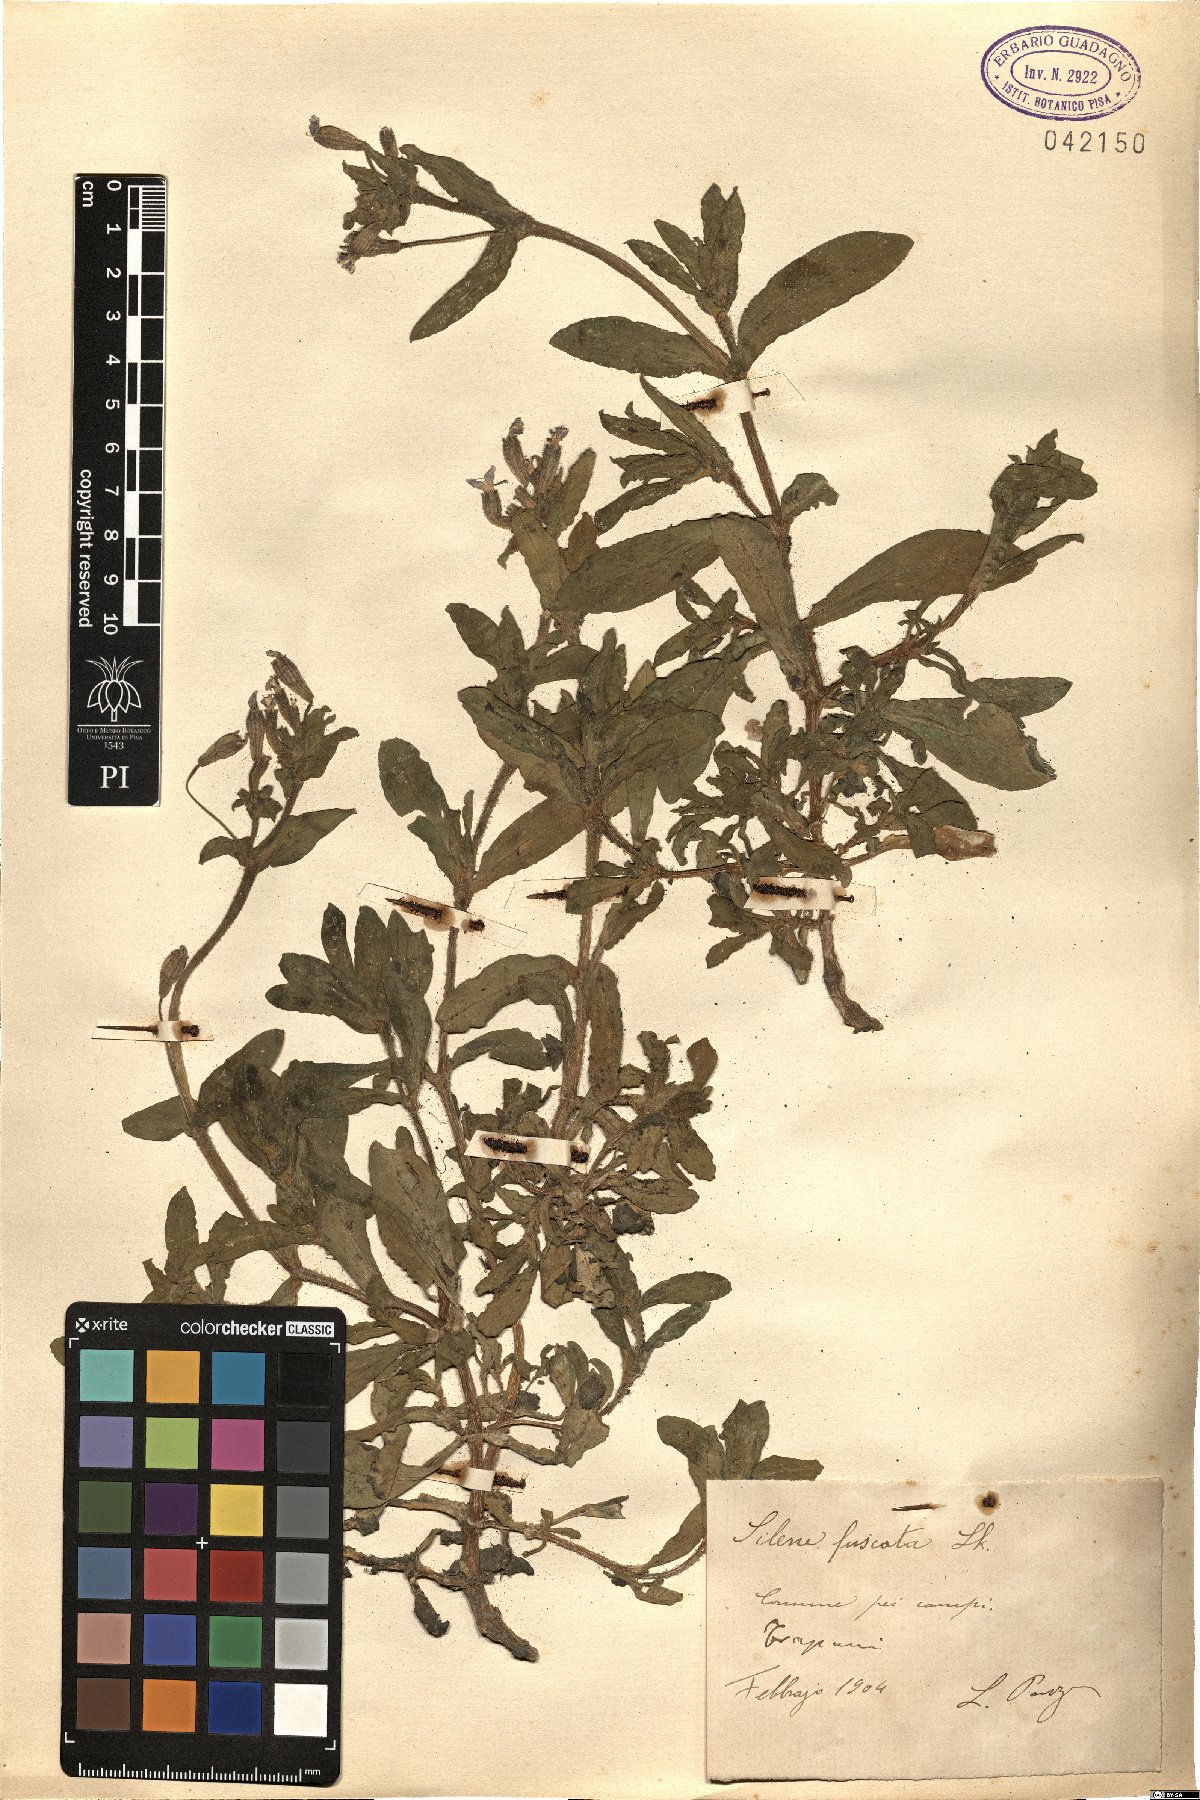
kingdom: Plantae
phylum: Tracheophyta
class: Magnoliopsida
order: Caryophyllales
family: Caryophyllaceae
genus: Silene
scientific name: Silene fuscata
